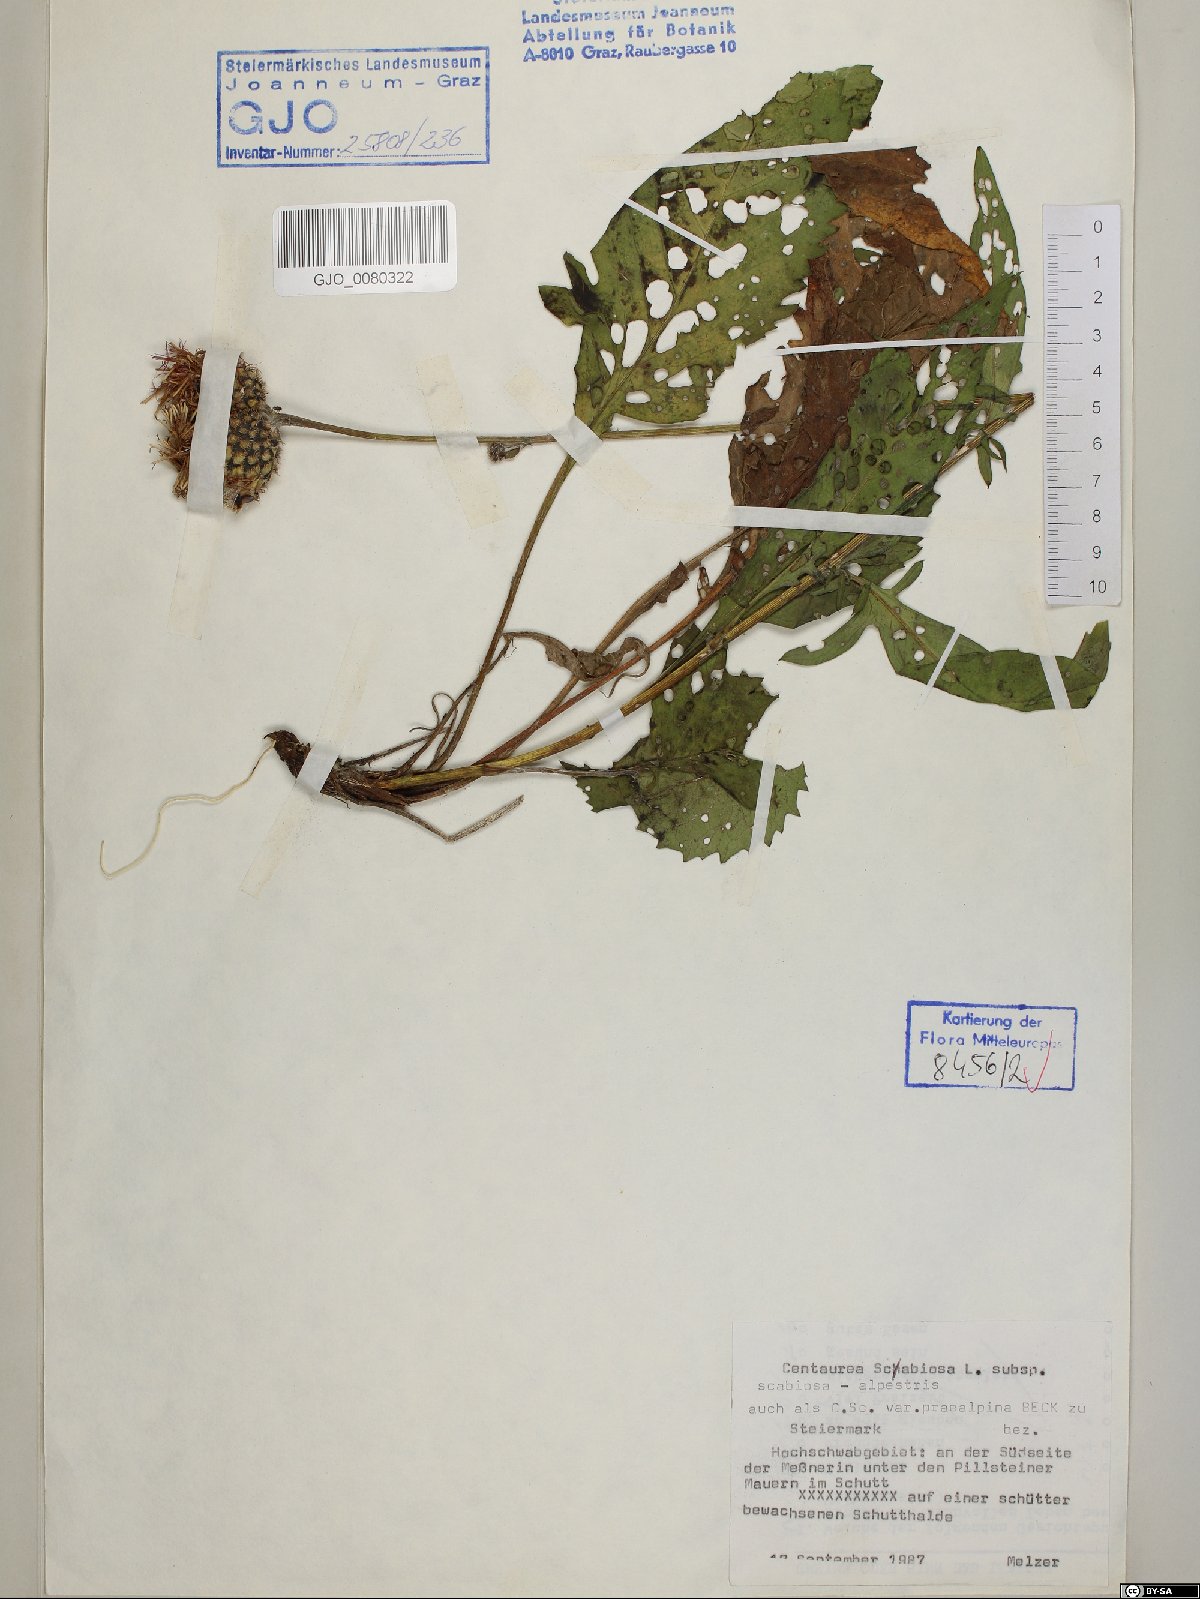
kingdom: Plantae
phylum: Tracheophyta
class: Magnoliopsida
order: Asterales
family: Asteraceae
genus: Centaurea
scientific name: Centaurea scabiosa
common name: Greater knapweed
